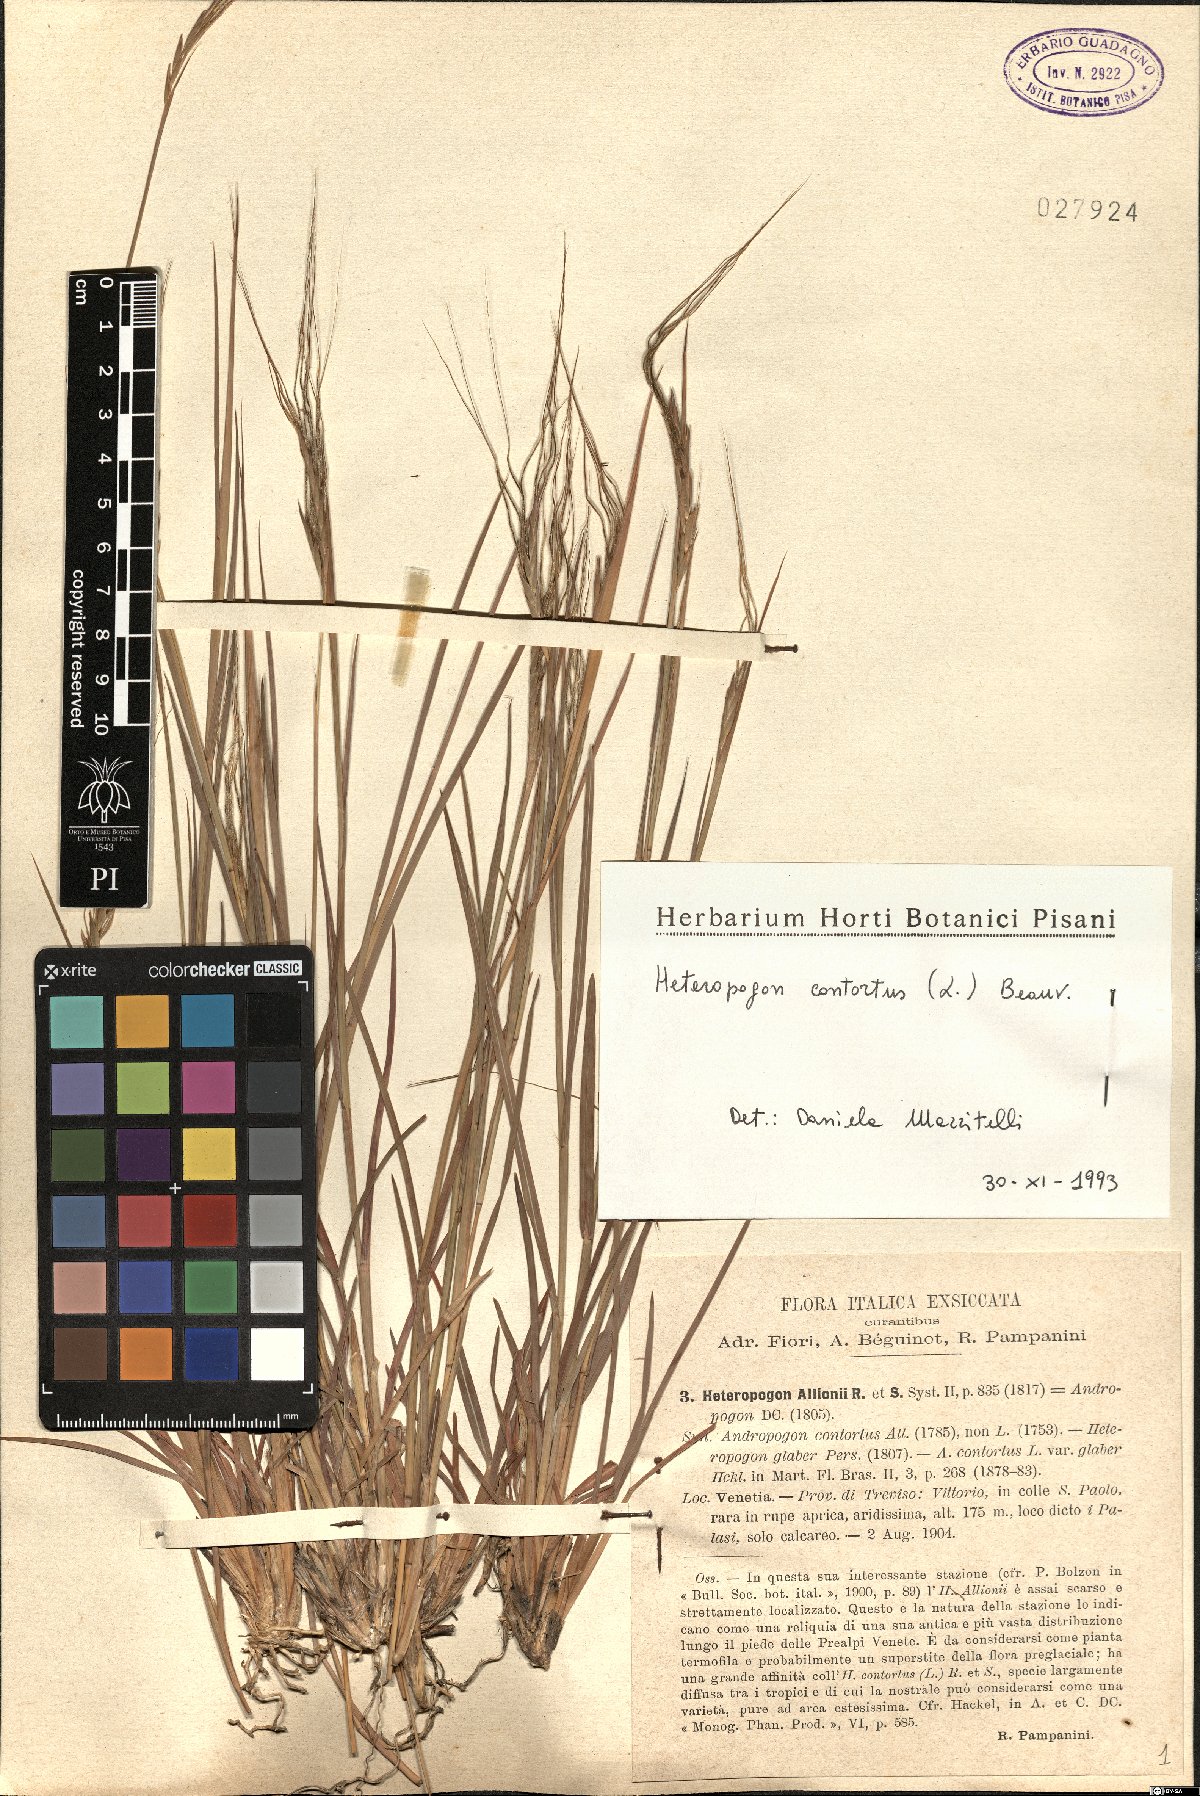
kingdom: Plantae
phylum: Tracheophyta
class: Liliopsida
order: Poales
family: Poaceae
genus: Heteropogon
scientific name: Heteropogon contortus
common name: Tanglehead
